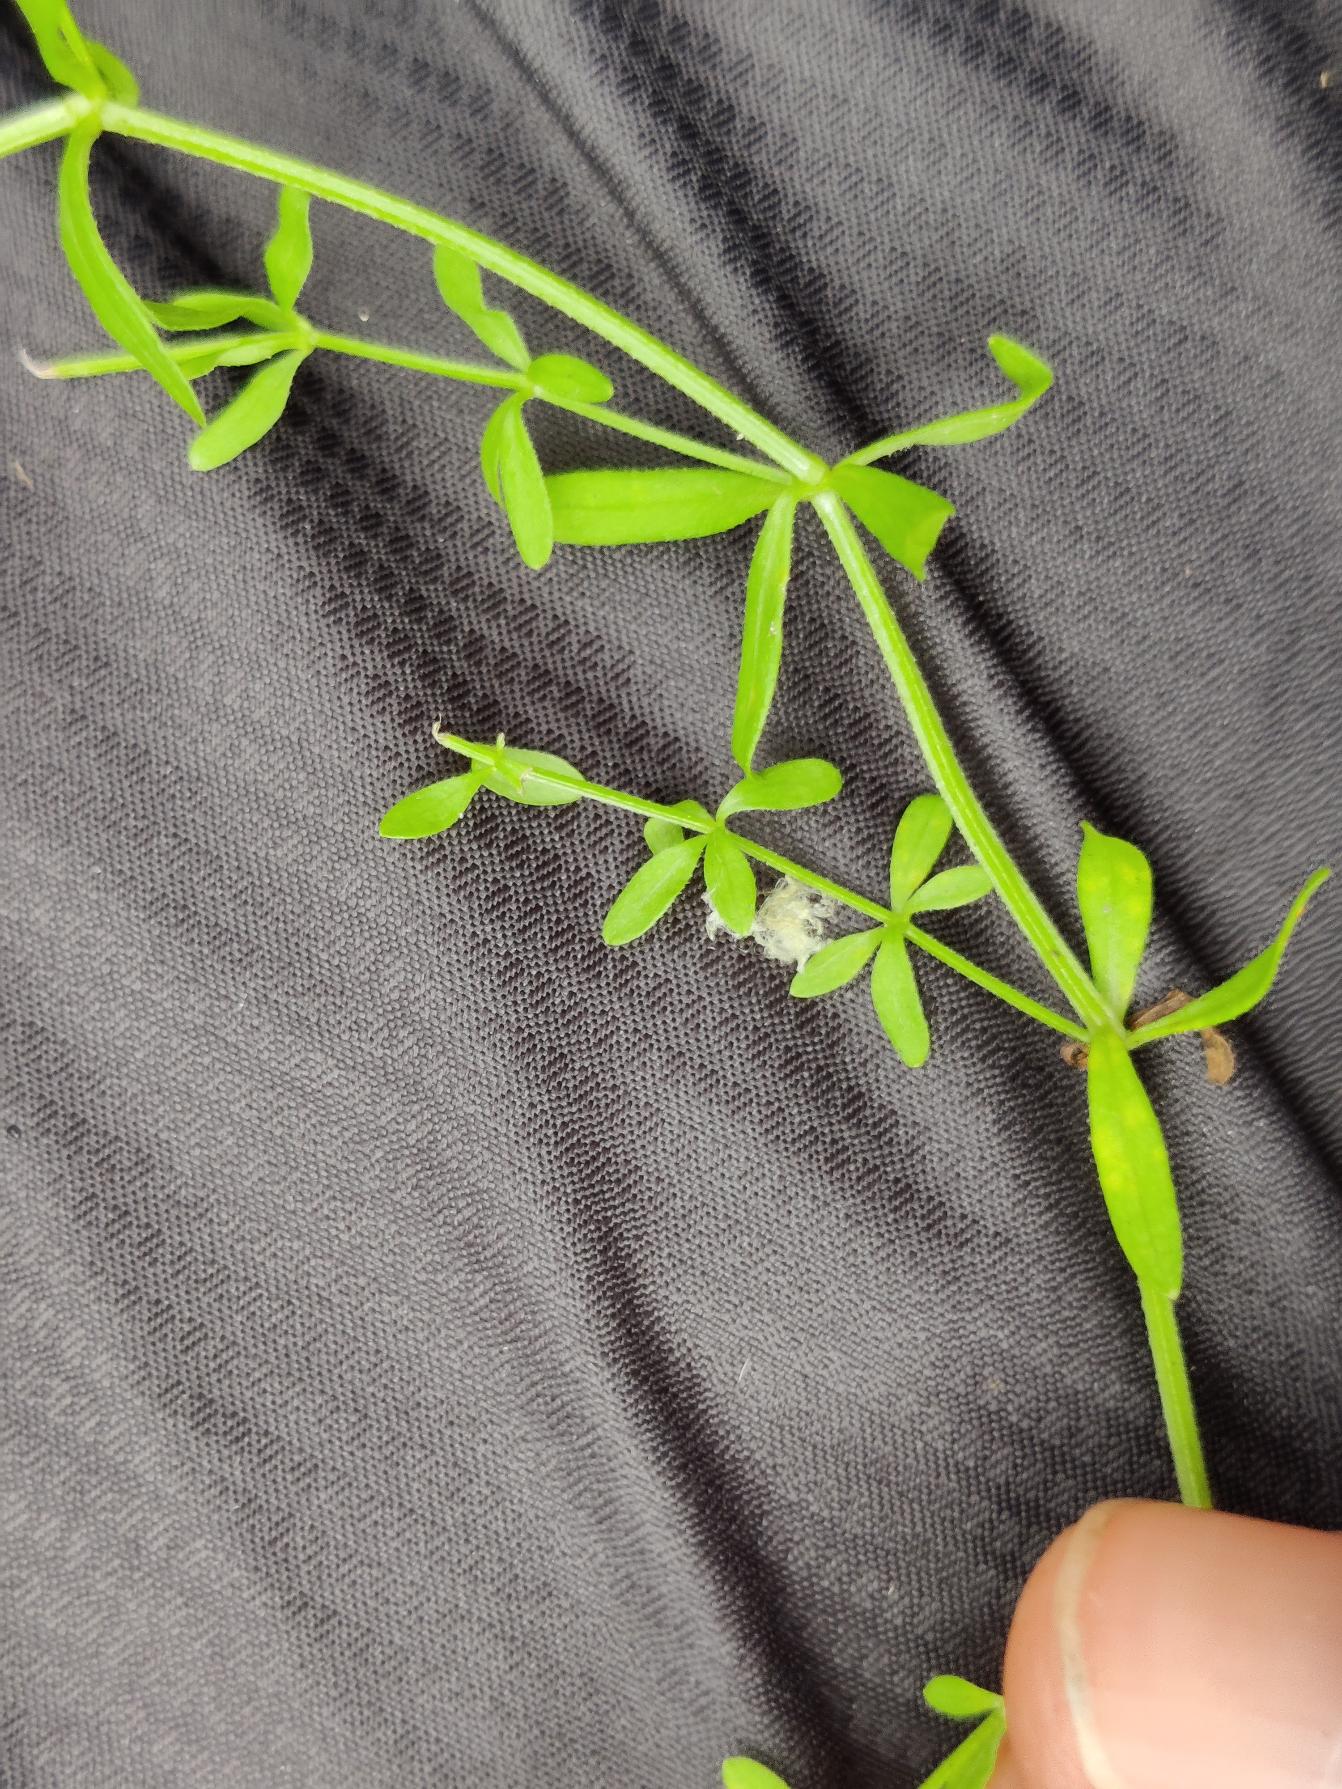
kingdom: Plantae
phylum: Tracheophyta
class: Magnoliopsida
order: Gentianales
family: Rubiaceae
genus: Galium
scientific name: Galium palustre
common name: Kær-snerre
